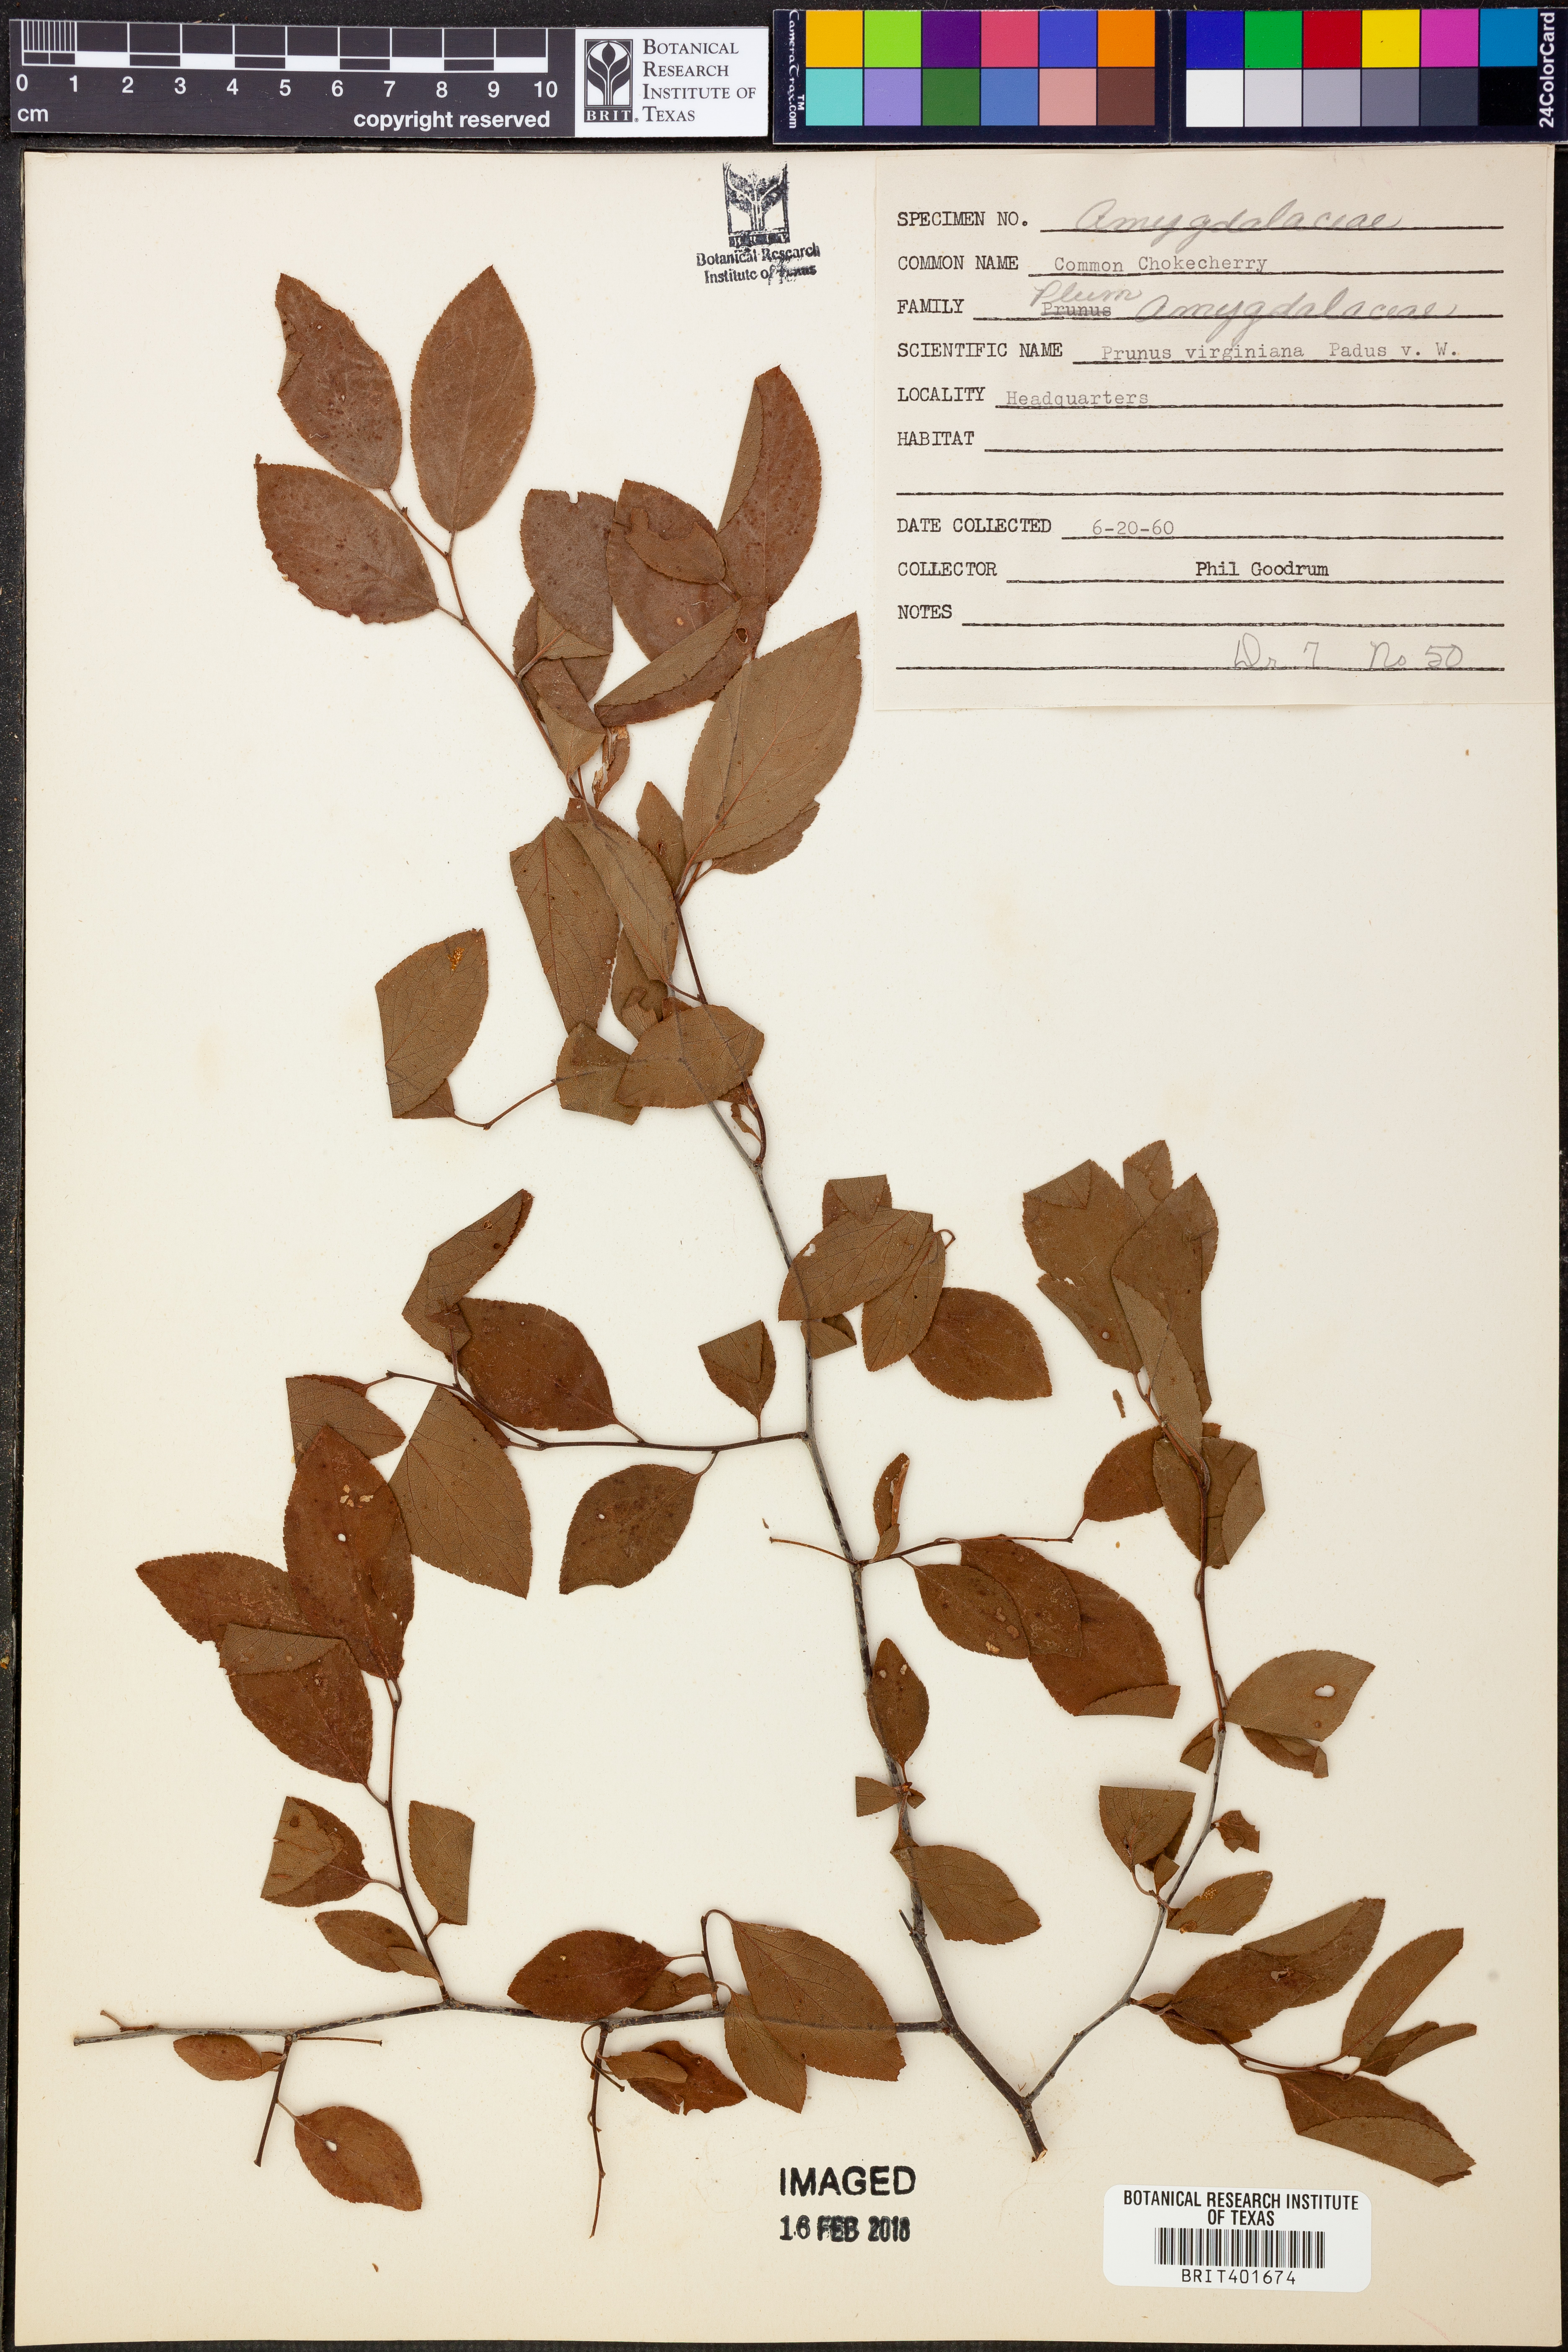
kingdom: Plantae
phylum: Tracheophyta
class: Magnoliopsida
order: Rosales
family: Rosaceae
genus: Prunus
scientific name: Prunus virginiana
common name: Chokecherry
